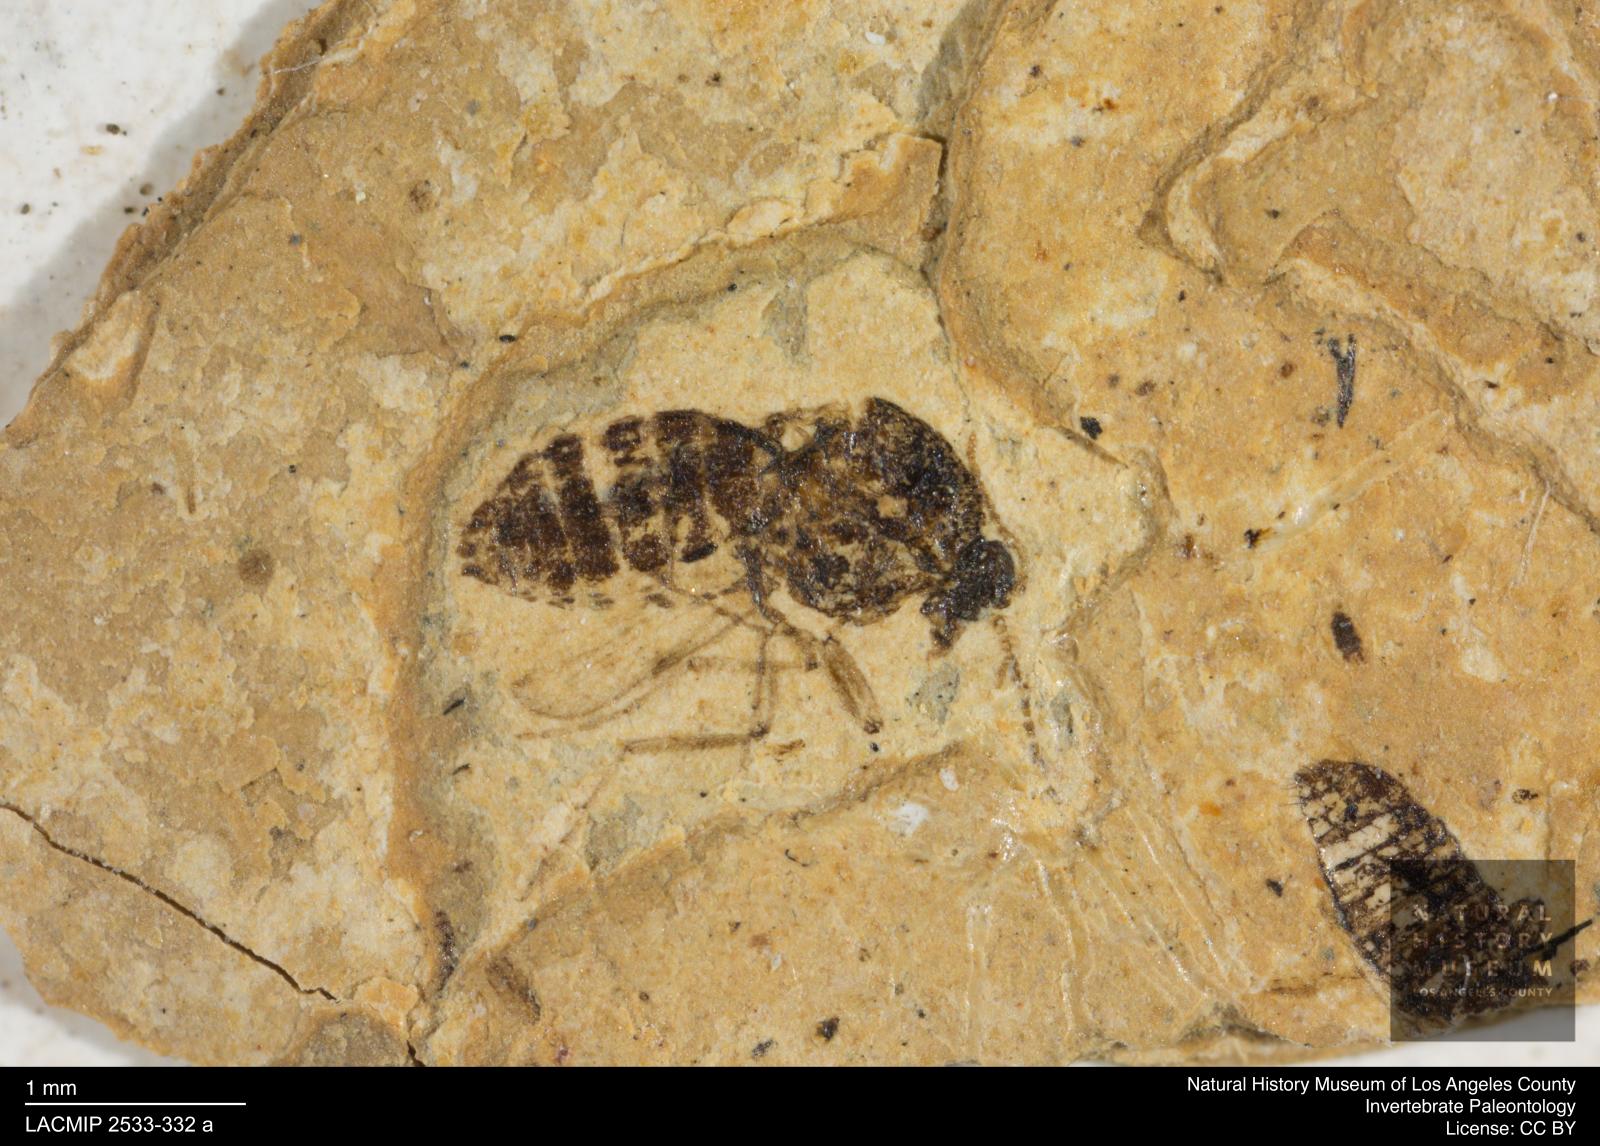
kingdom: Animalia
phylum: Arthropoda
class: Insecta
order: Diptera
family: Ceratopogonidae
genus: Culicoides
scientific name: Culicoides
